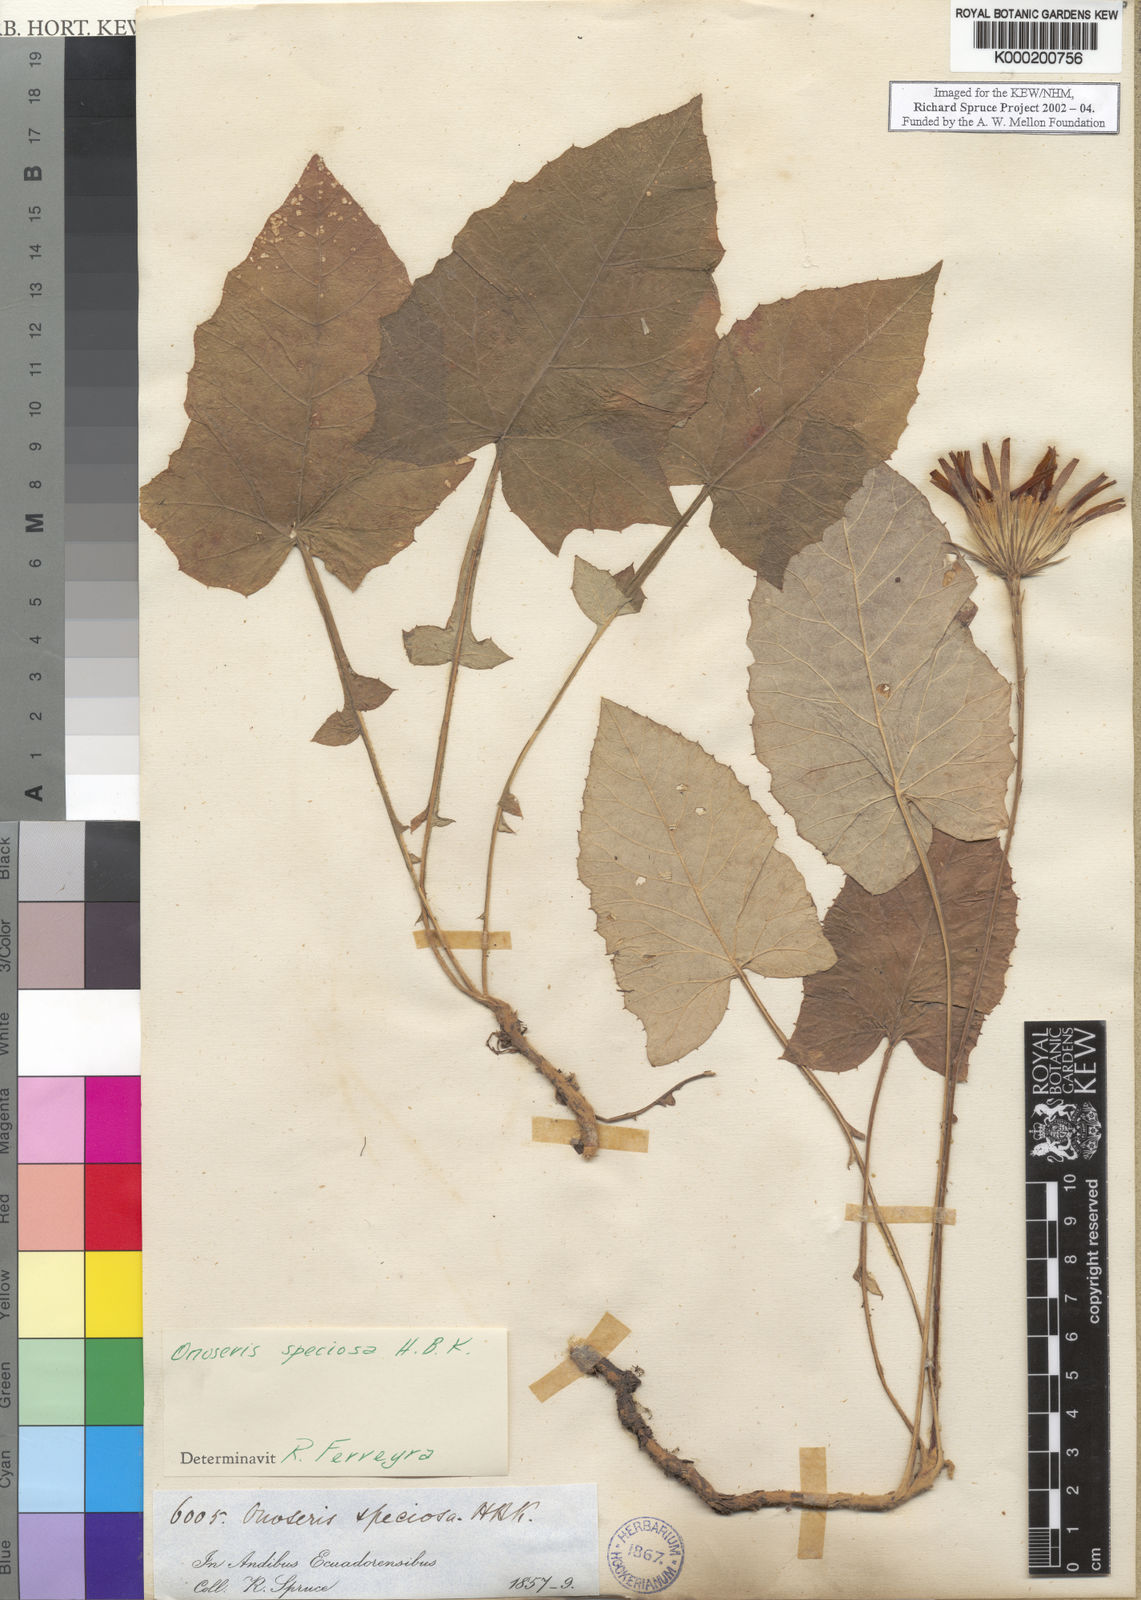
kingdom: Plantae
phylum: Tracheophyta
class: Magnoliopsida
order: Asterales
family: Asteraceae
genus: Onoseris
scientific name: Onoseris
